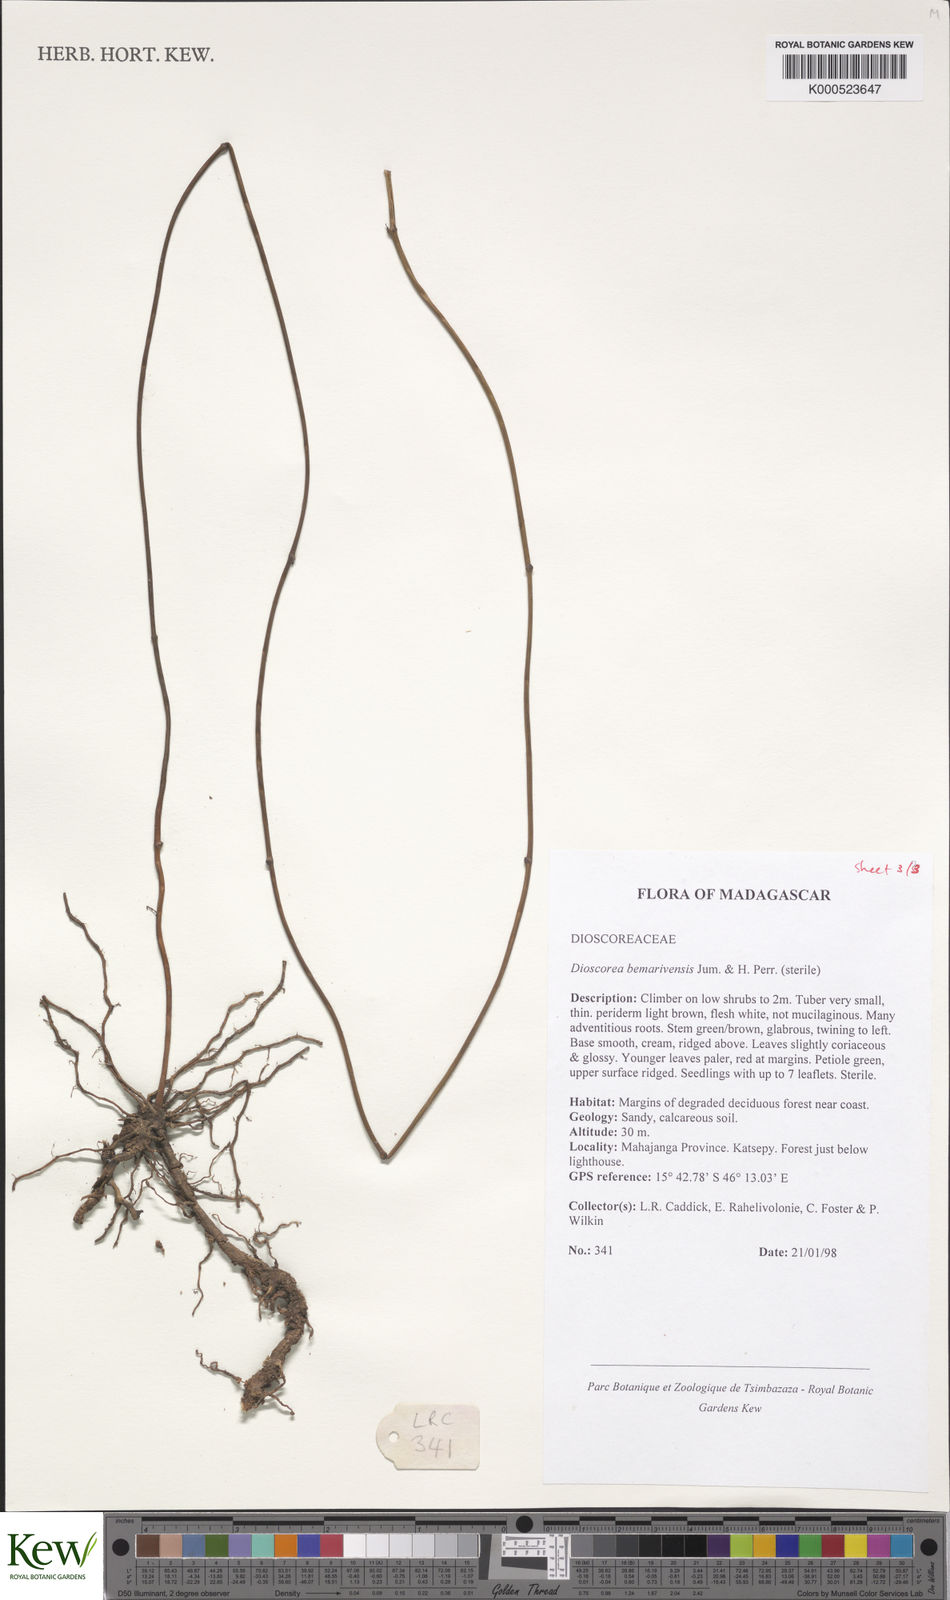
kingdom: Plantae
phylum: Tracheophyta
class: Liliopsida
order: Dioscoreales
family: Dioscoreaceae
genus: Dioscorea
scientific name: Dioscorea bemarivensis
